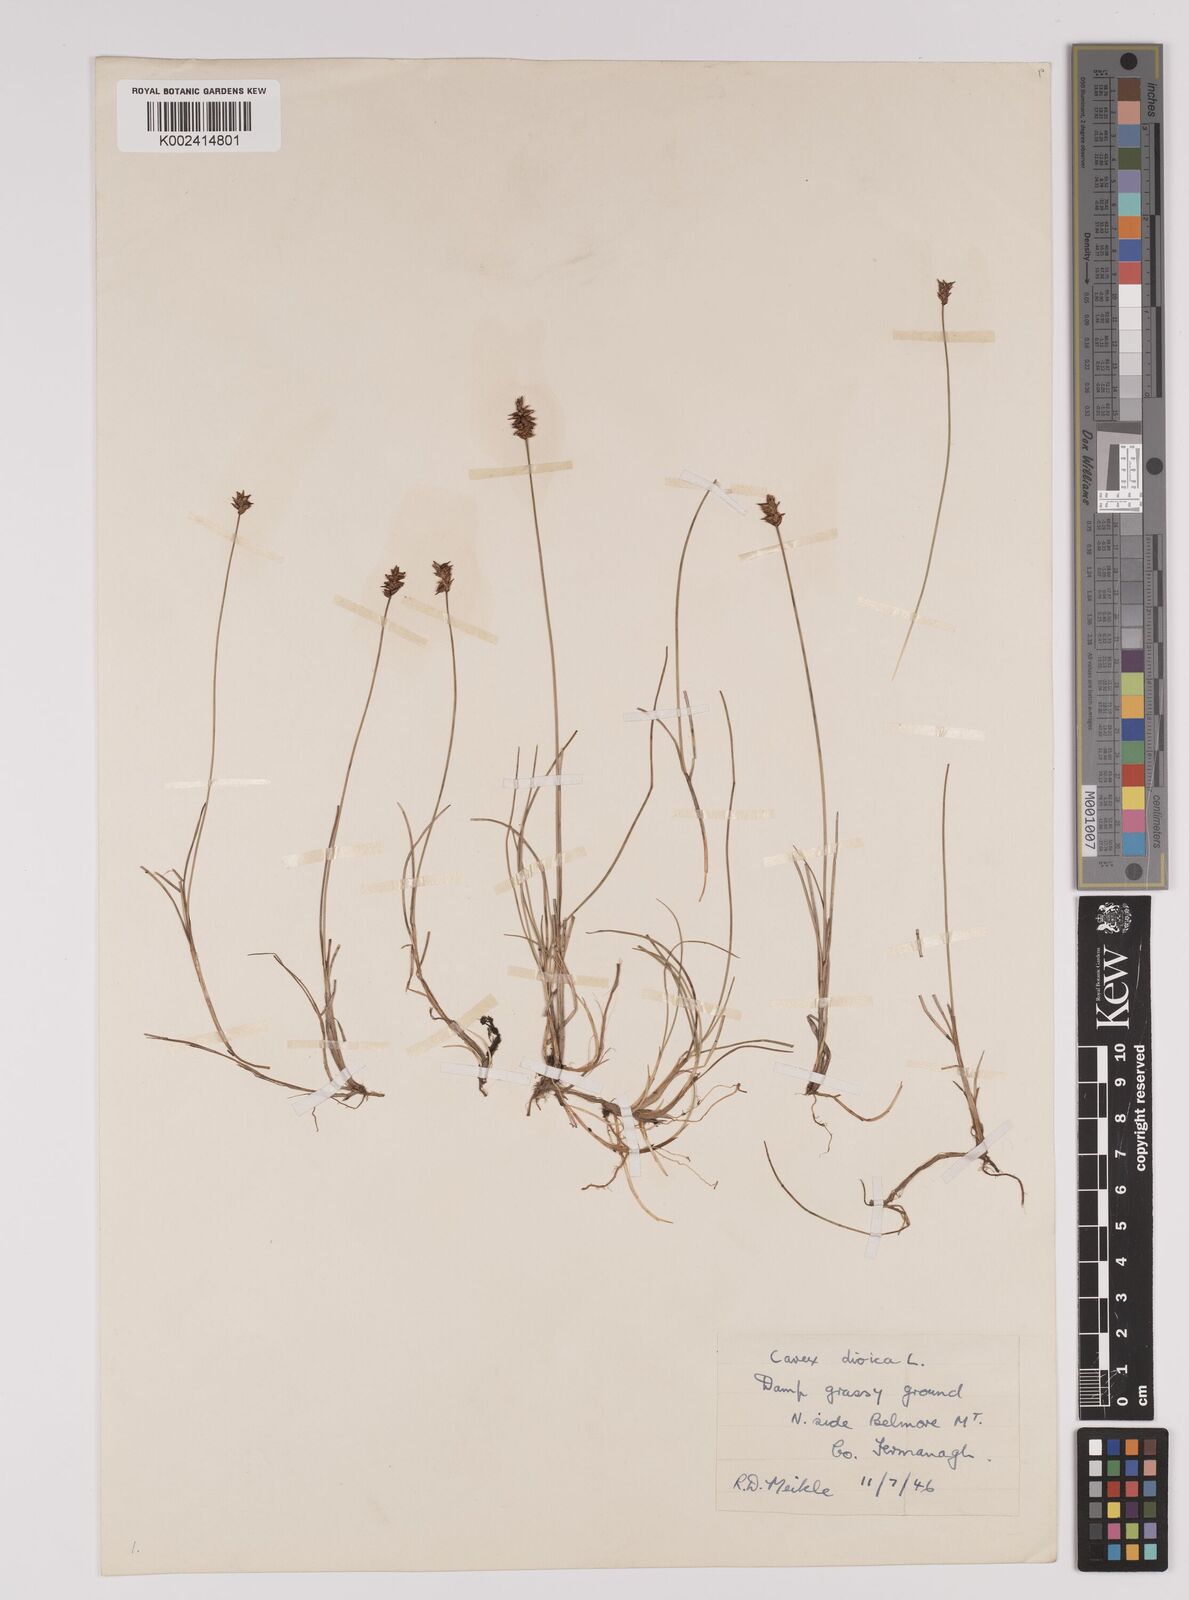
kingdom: Plantae
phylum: Tracheophyta
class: Liliopsida
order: Poales
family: Cyperaceae
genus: Carex
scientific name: Carex dioica
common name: Dioecious sedge
